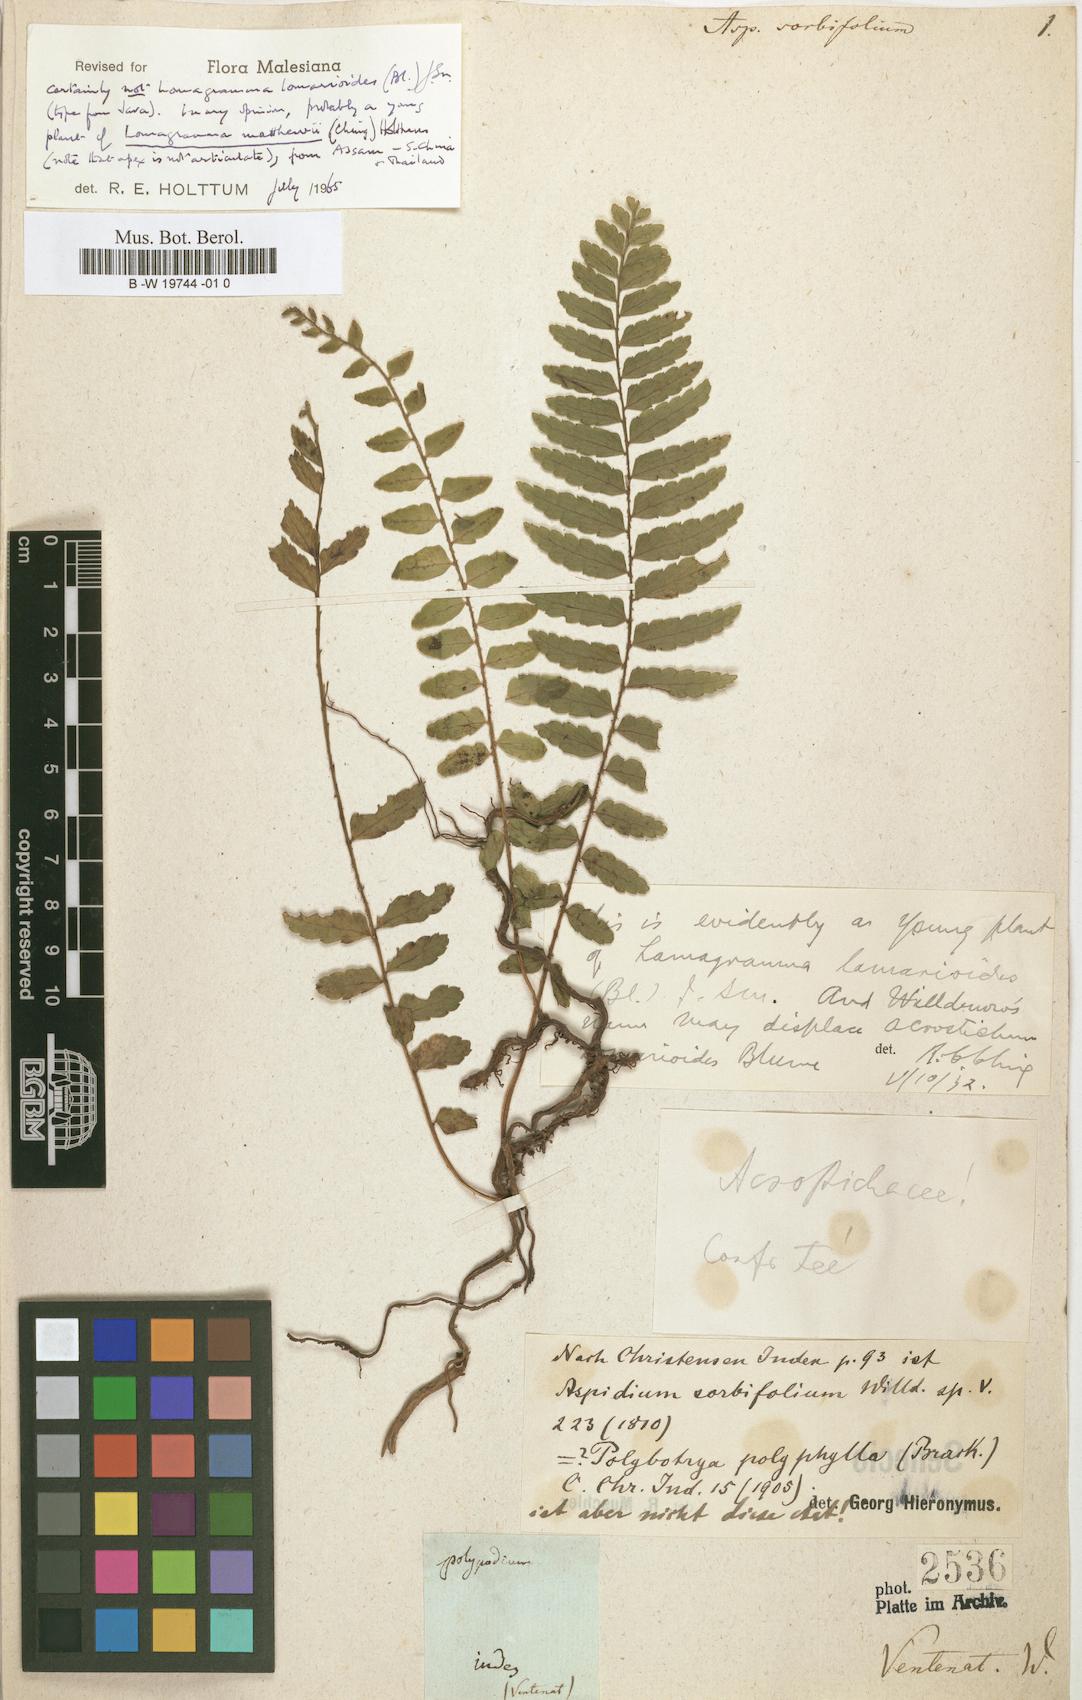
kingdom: Plantae
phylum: Tracheophyta
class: Polypodiopsida
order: Polypodiales
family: Dryopteridaceae
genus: Lomagramma
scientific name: Lomagramma sorbifolia
